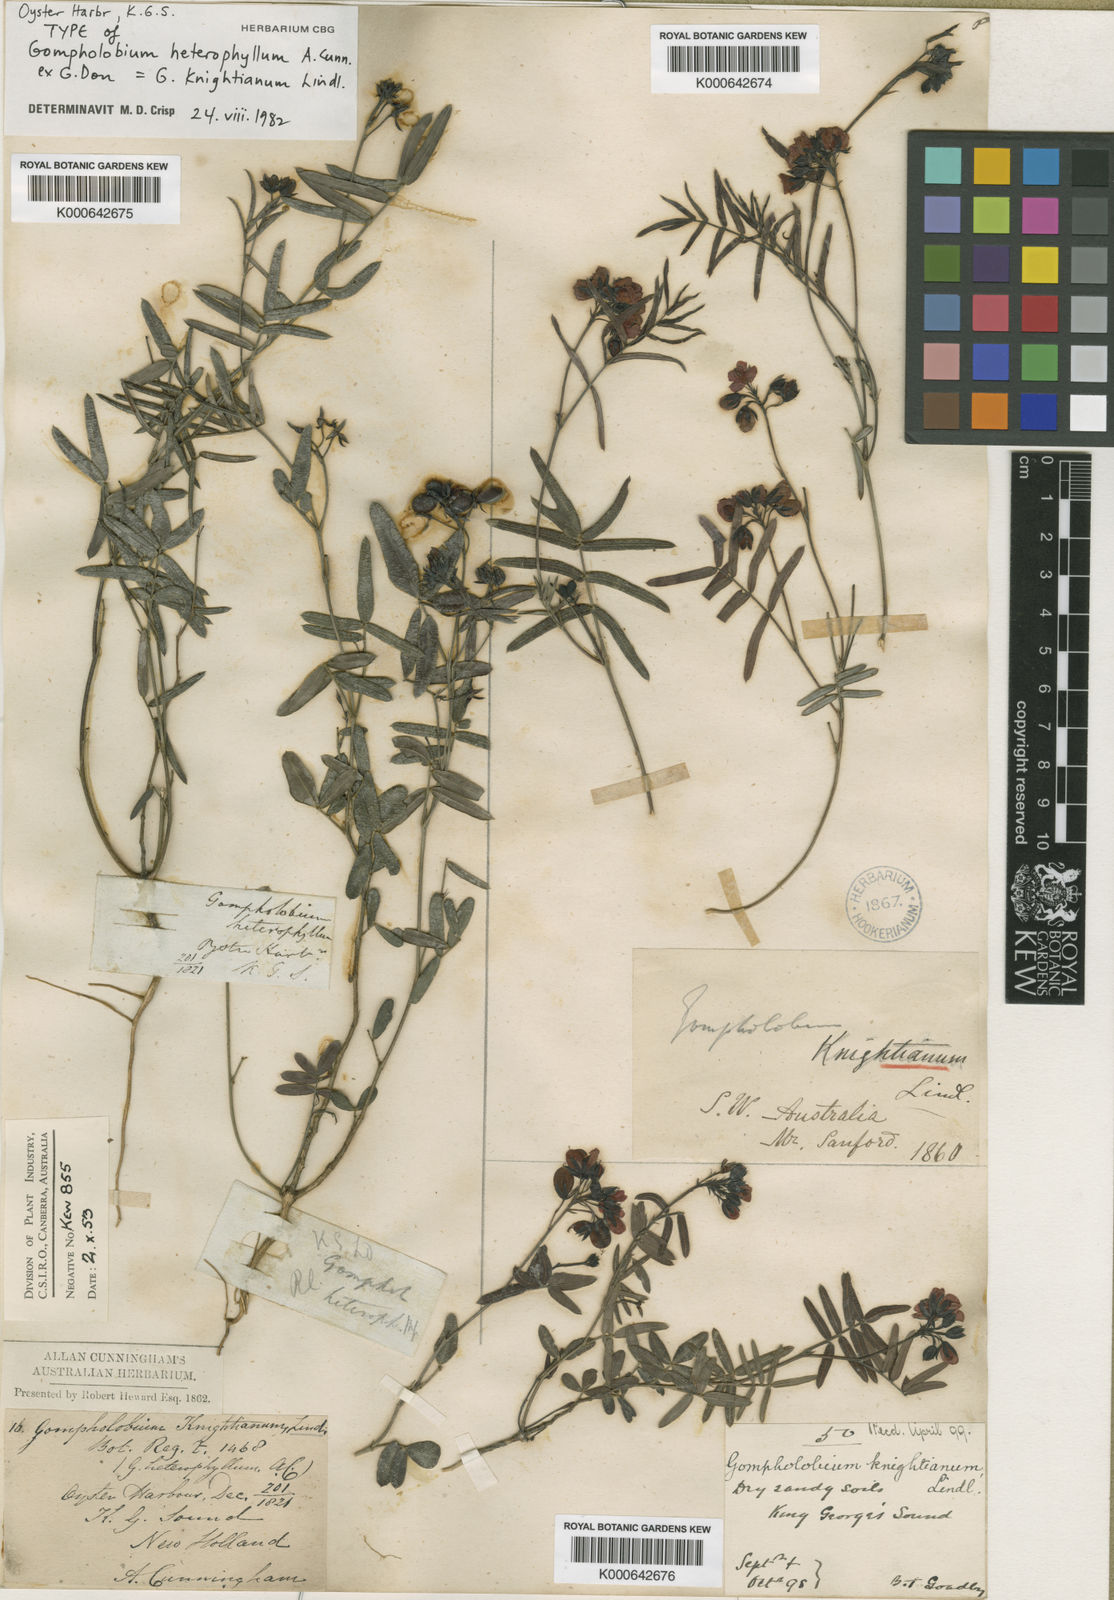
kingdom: Plantae
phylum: Tracheophyta
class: Magnoliopsida
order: Fabales
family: Fabaceae
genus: Gompholobium
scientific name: Gompholobium knightianum
